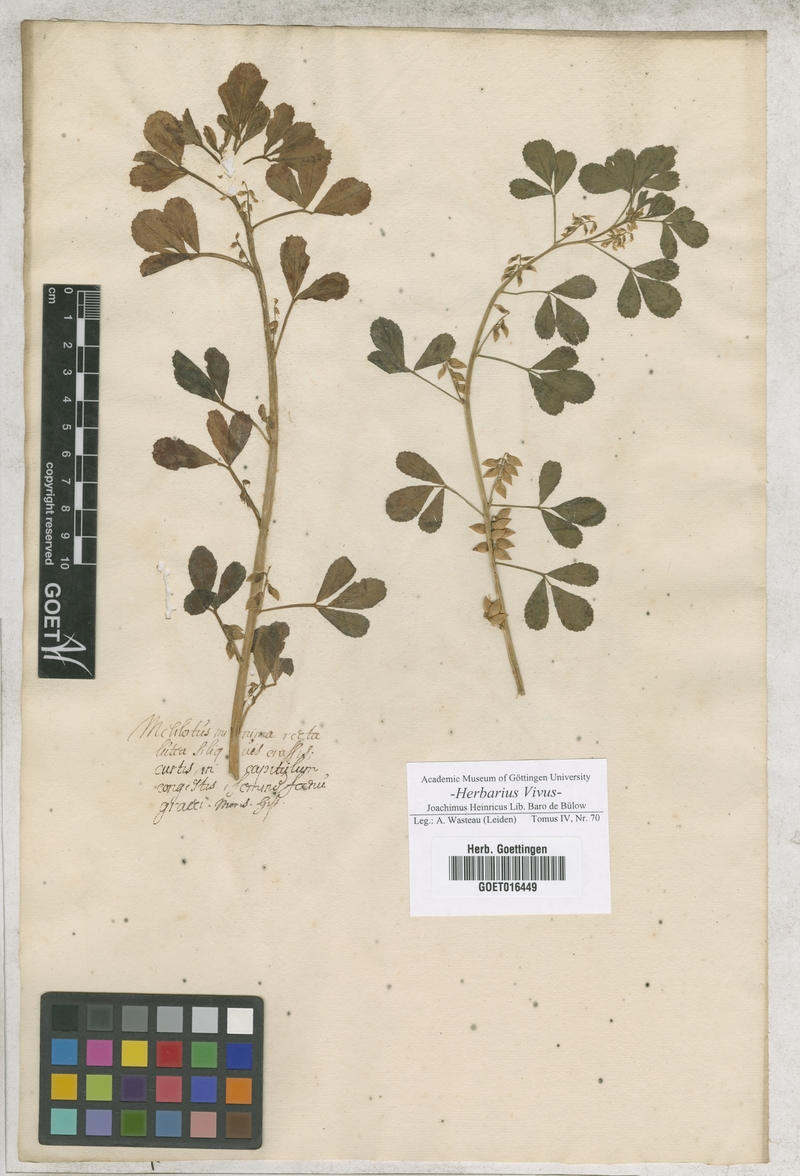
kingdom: Plantae
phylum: Tracheophyta
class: Magnoliopsida
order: Fabales
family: Fabaceae
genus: Melilotus
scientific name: Melilotus
